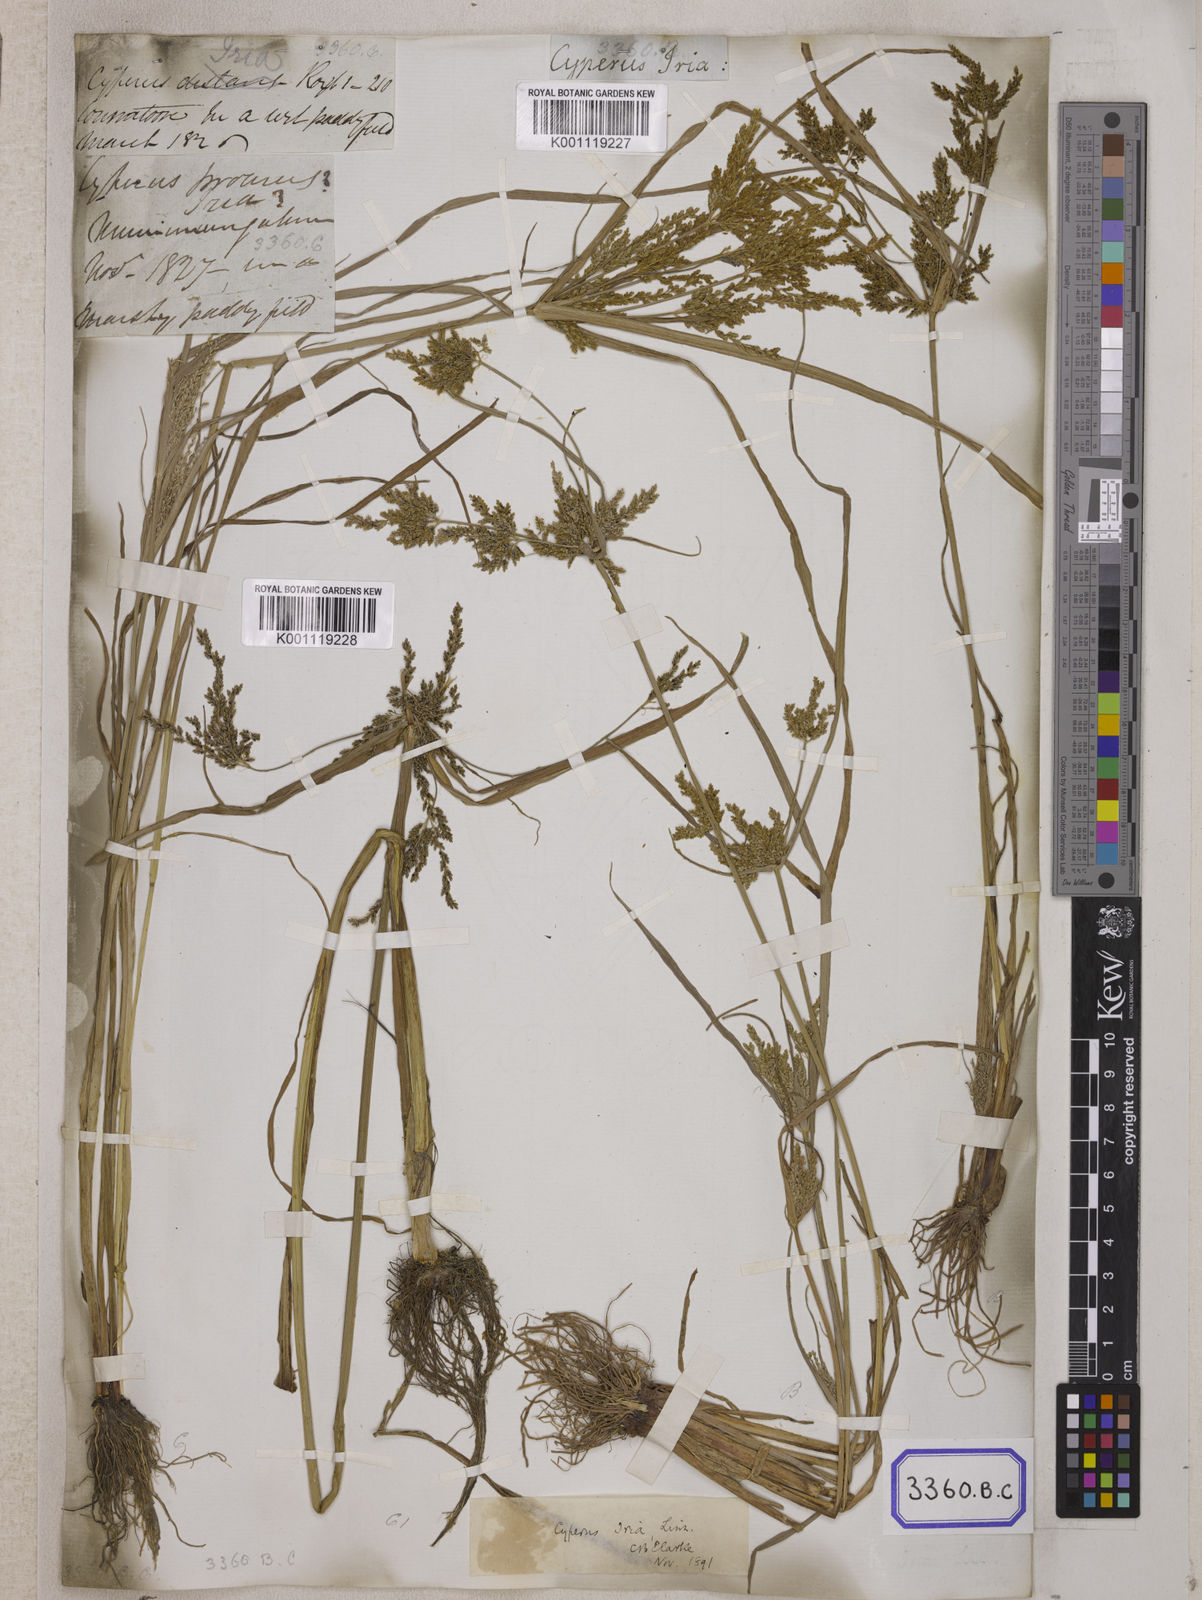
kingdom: Plantae
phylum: Tracheophyta
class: Liliopsida
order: Poales
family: Cyperaceae
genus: Cyperus
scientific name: Cyperus
